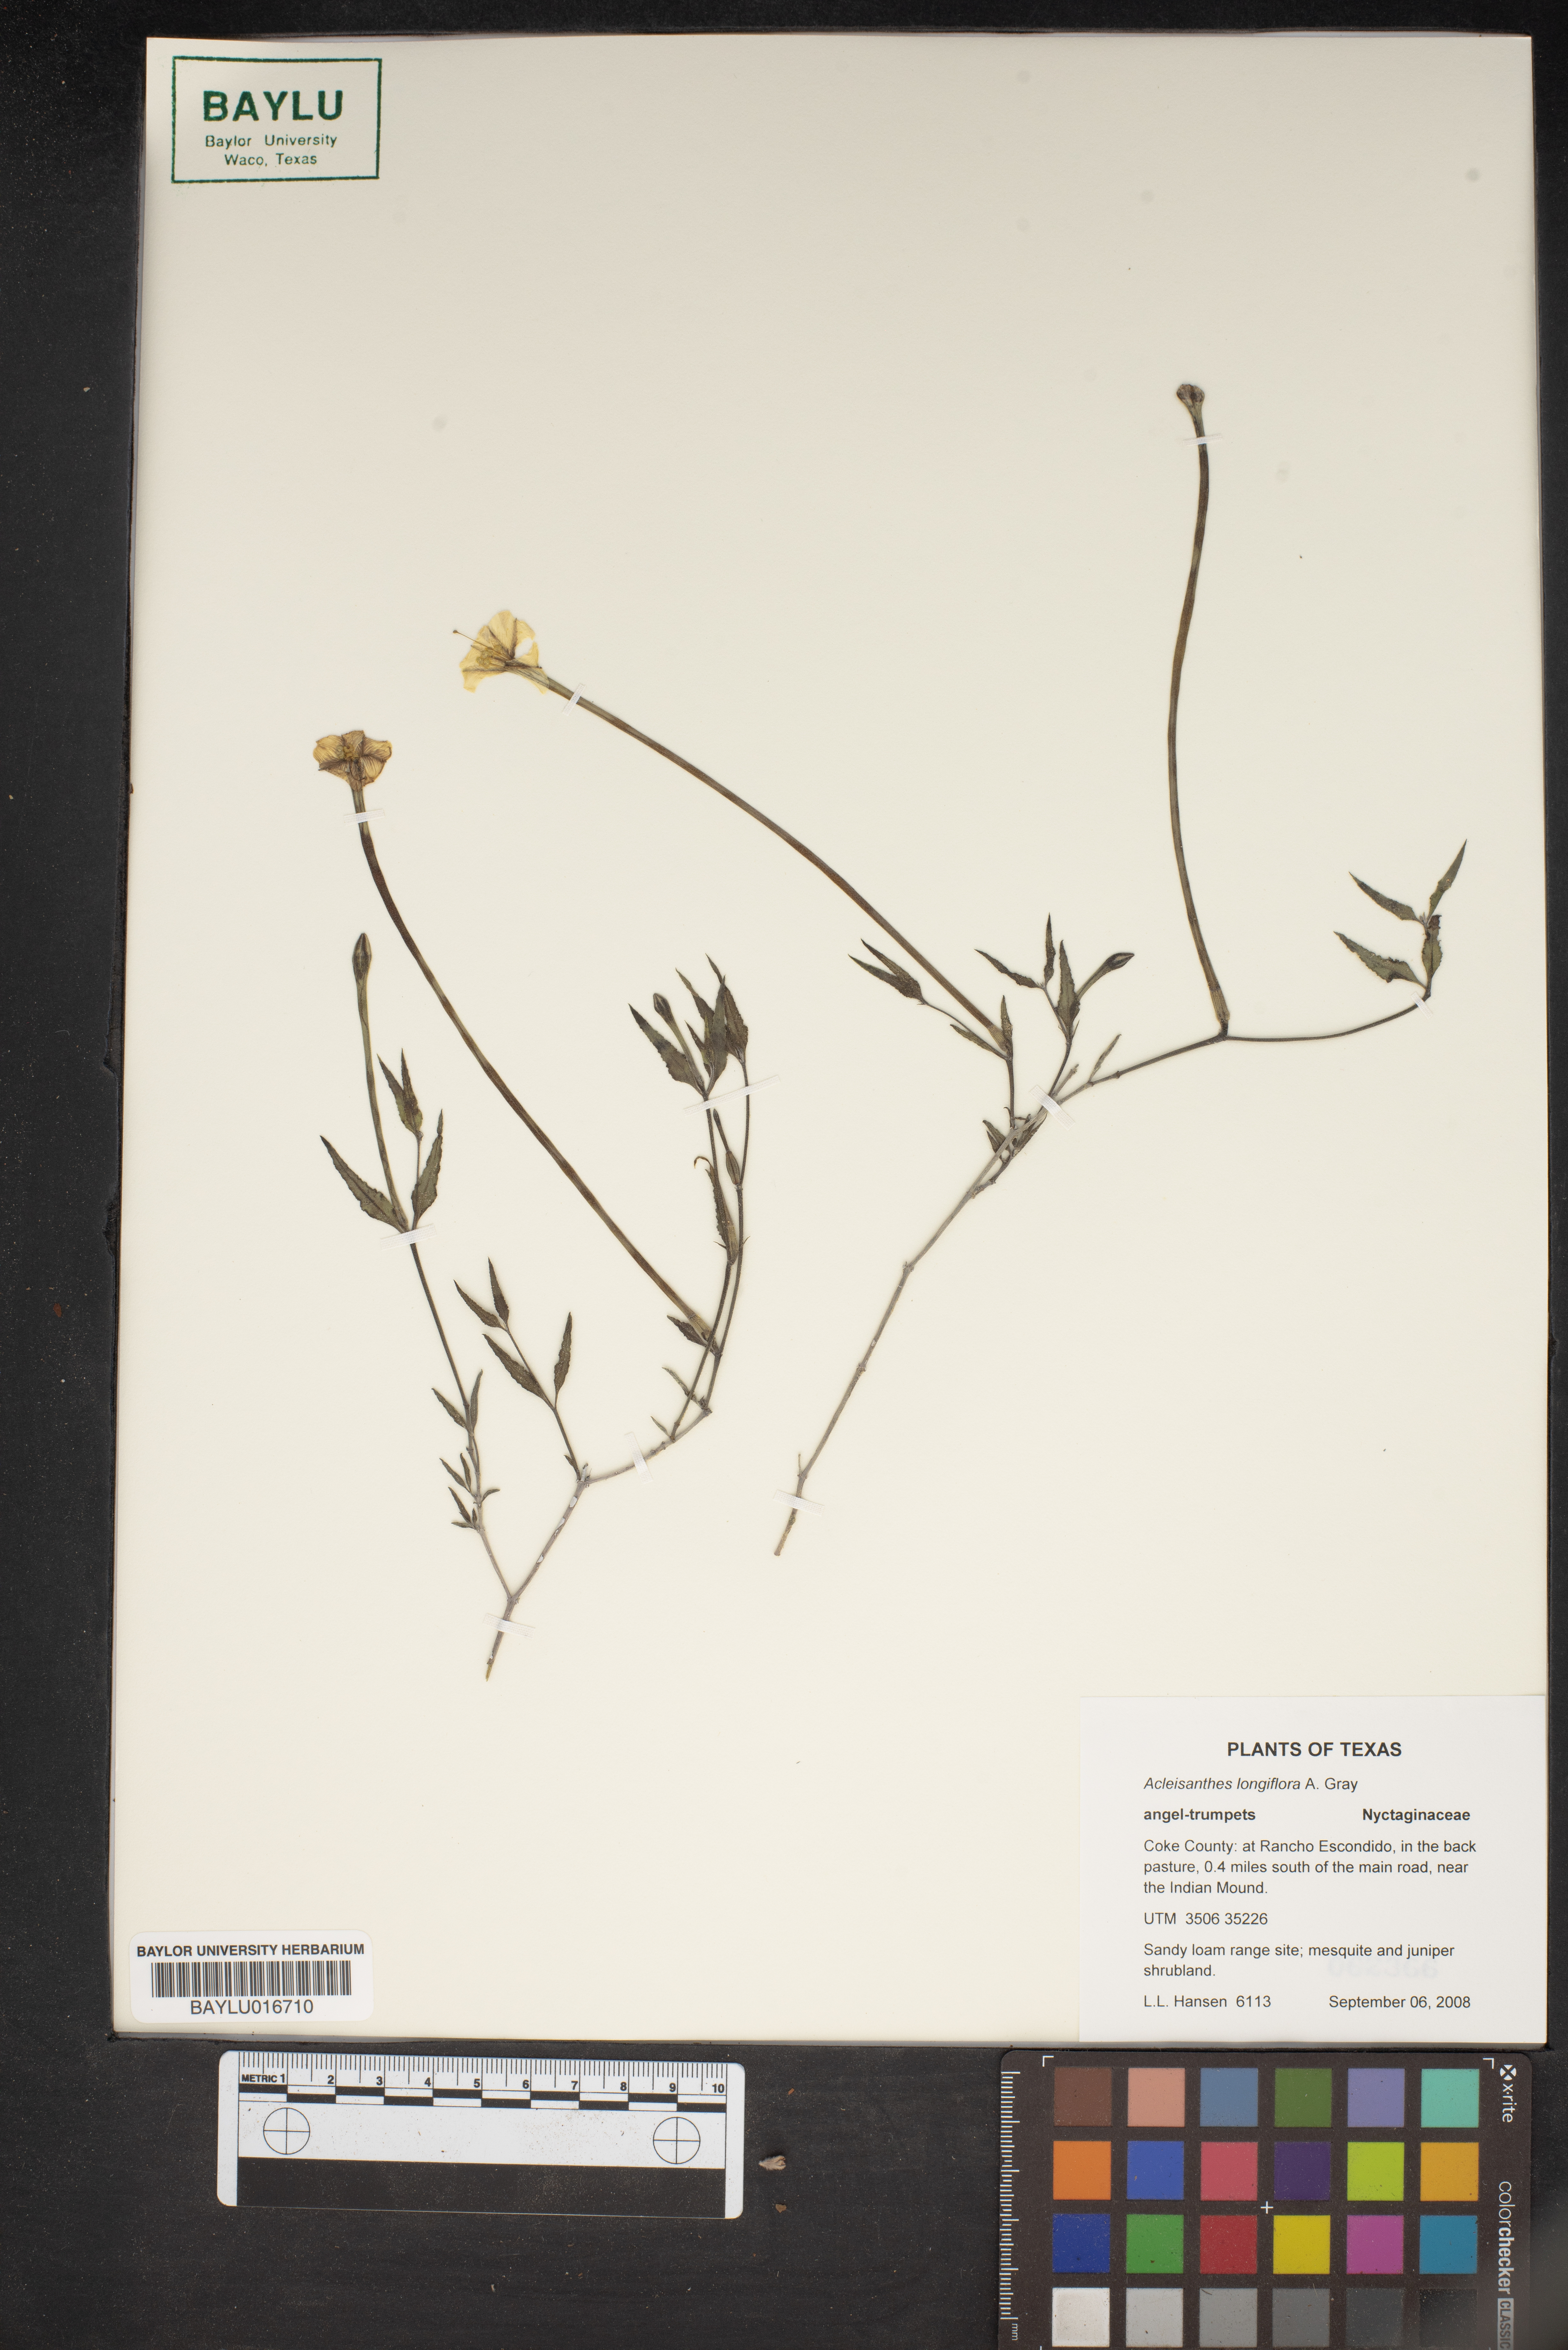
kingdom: Plantae
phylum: Tracheophyta
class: Magnoliopsida
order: Caryophyllales
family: Nyctaginaceae
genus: Acleisanthes
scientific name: Acleisanthes longiflora
